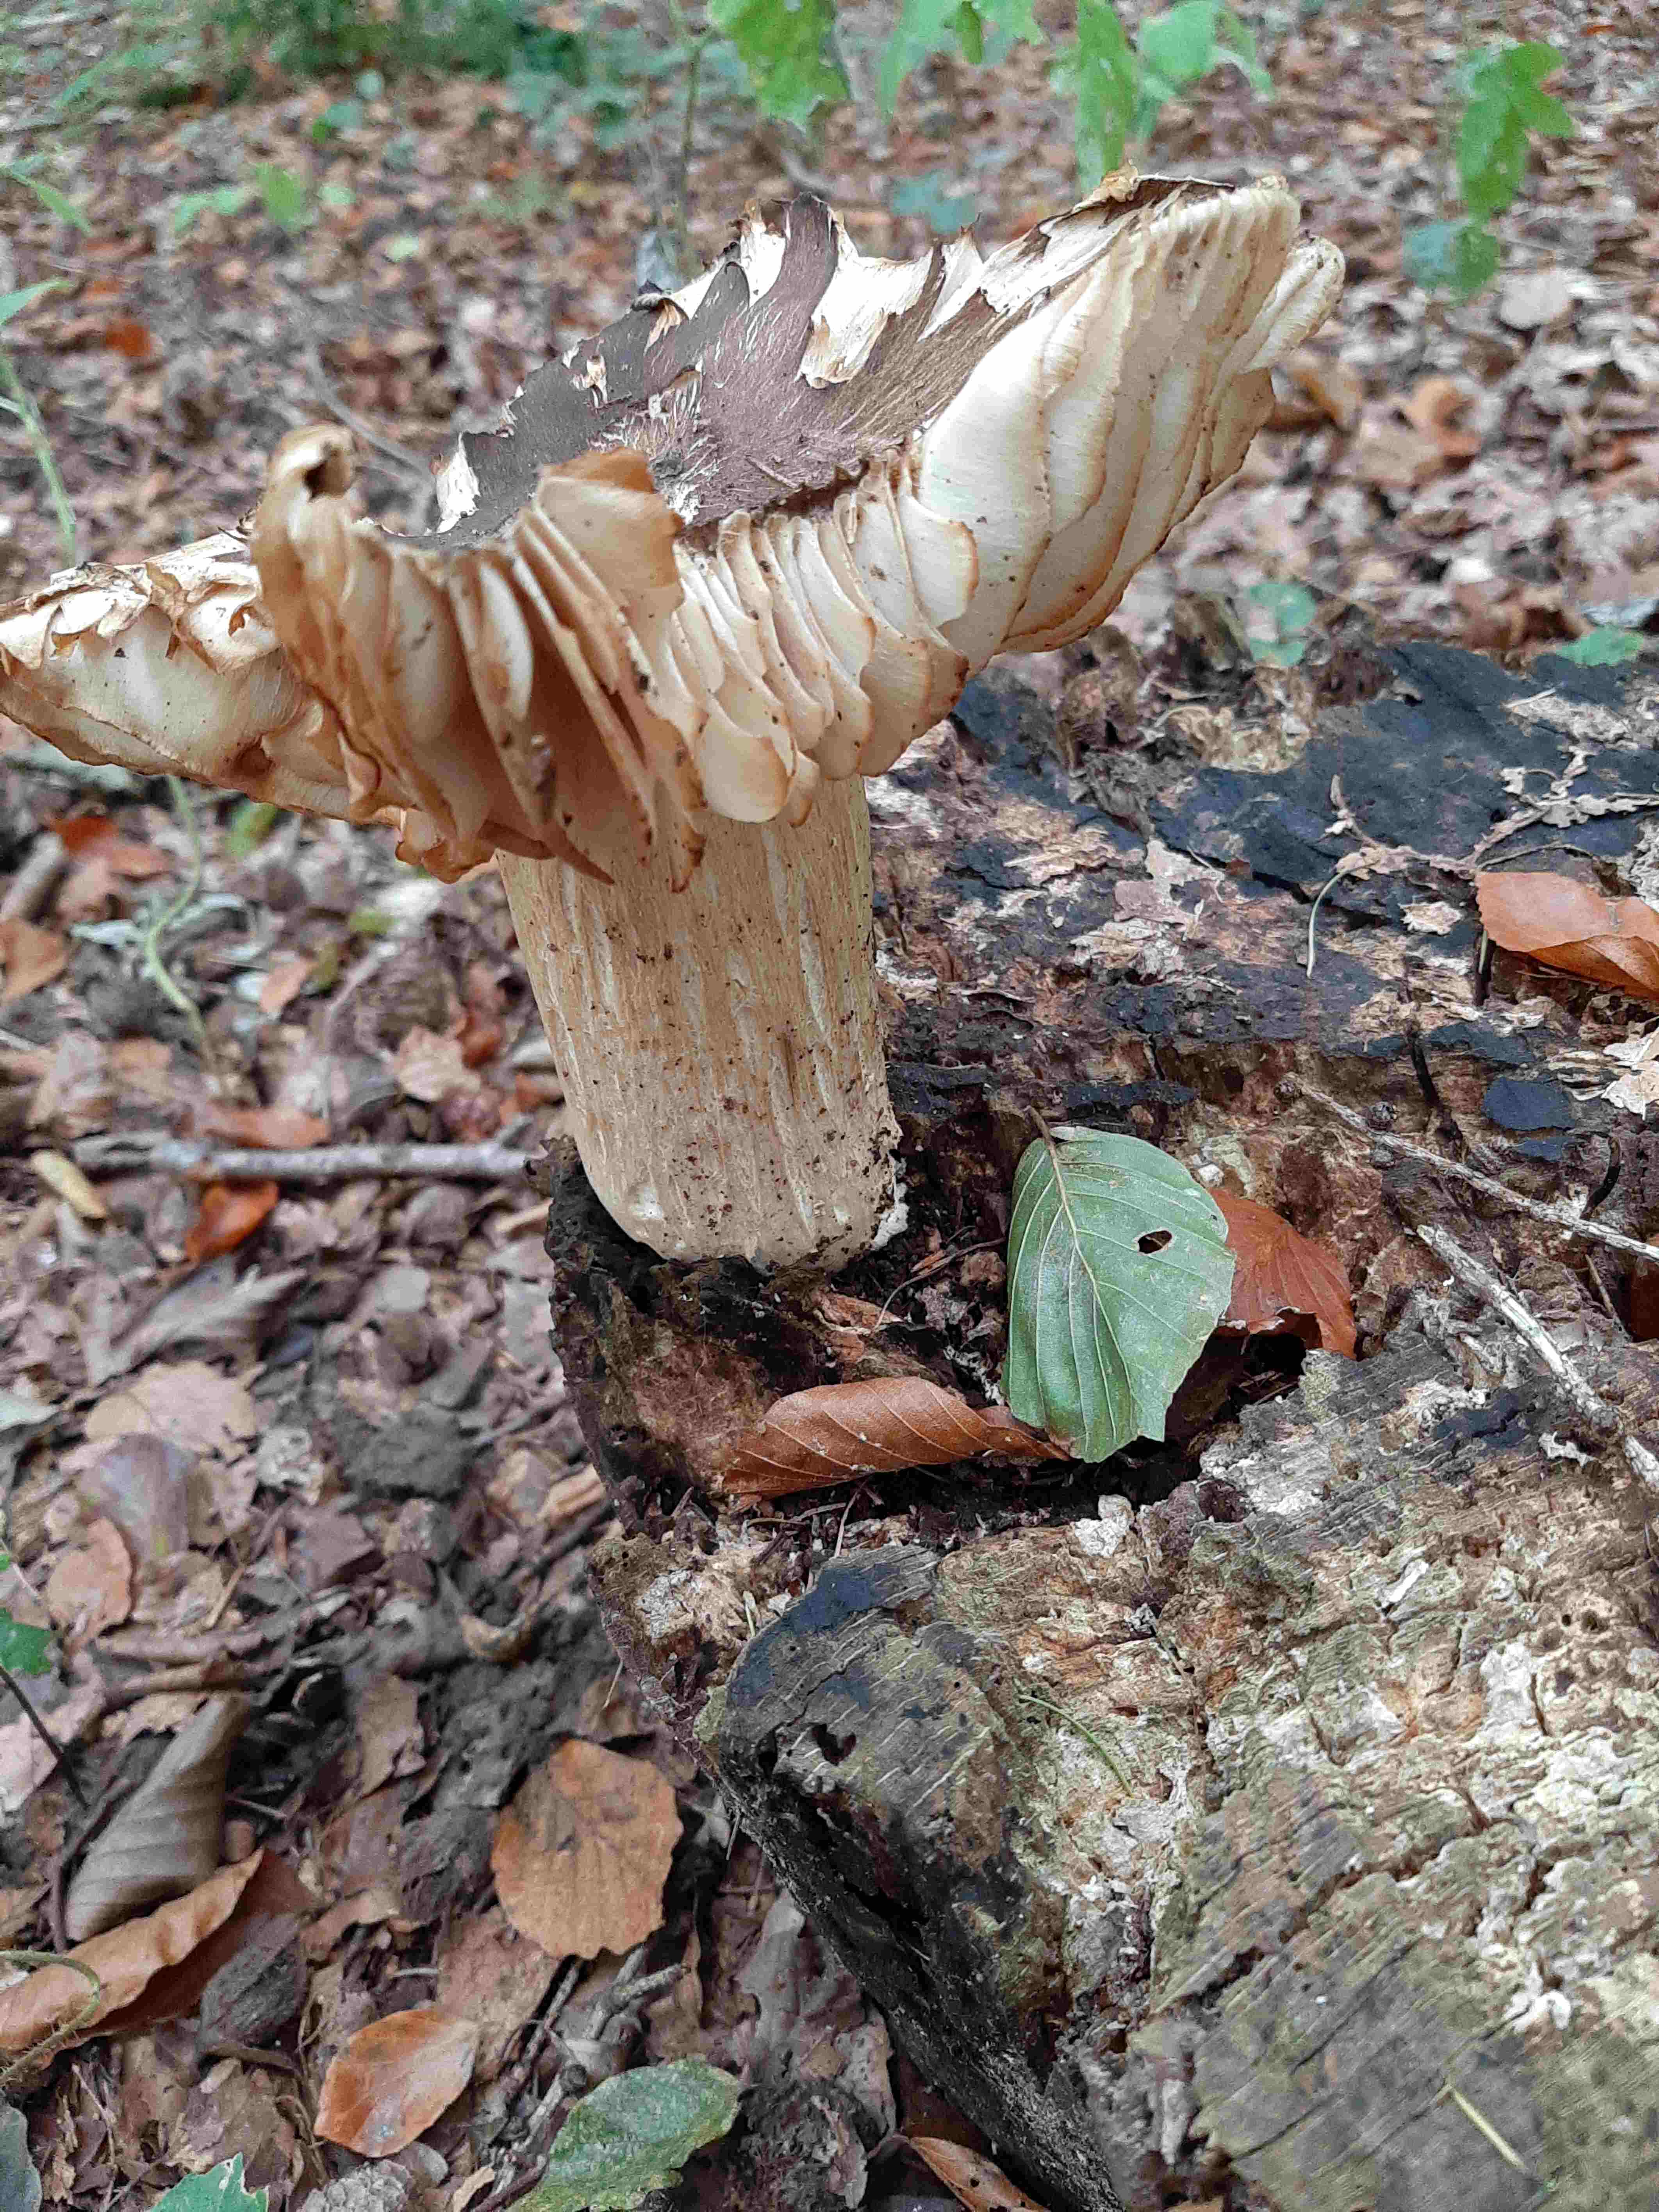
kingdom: Fungi
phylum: Basidiomycota
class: Agaricomycetes
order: Agaricales
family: Tricholomataceae
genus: Megacollybia
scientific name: Megacollybia platyphylla
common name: bredbladet væbnerhat
